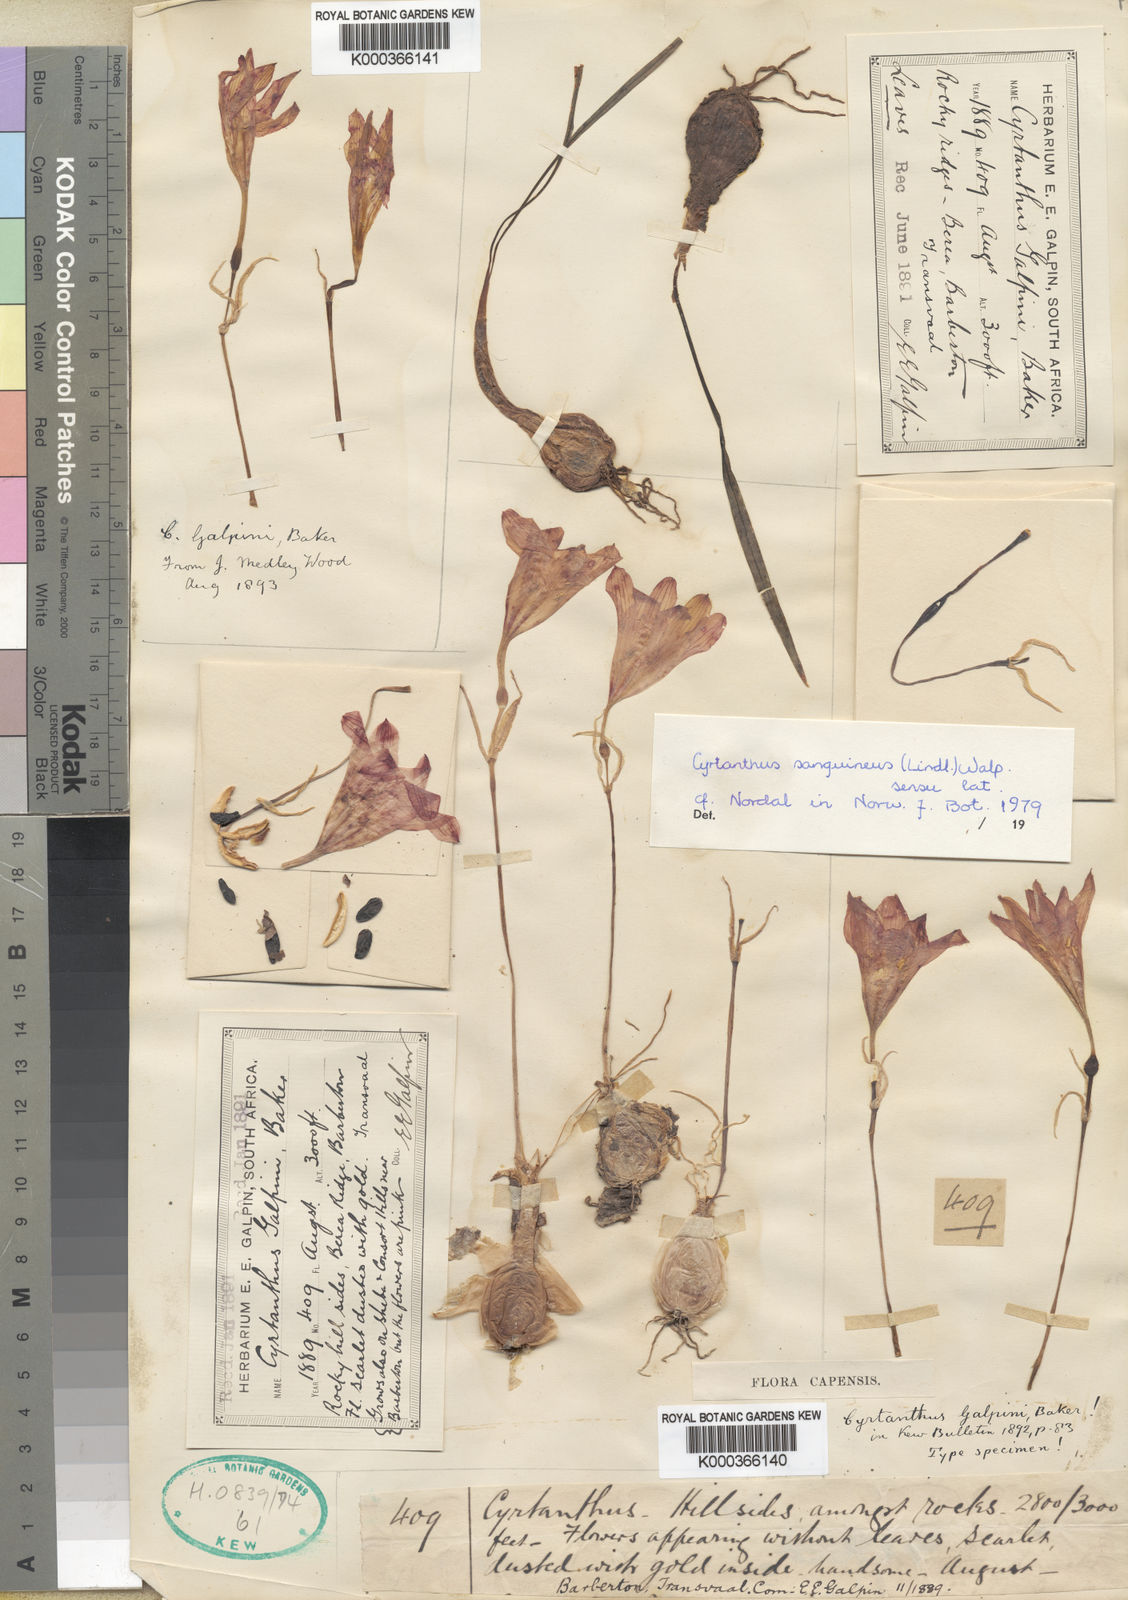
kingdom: Plantae
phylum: Tracheophyta
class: Liliopsida
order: Asparagales
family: Amaryllidaceae
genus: Cyrtanthus
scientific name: Cyrtanthus sanguineus
